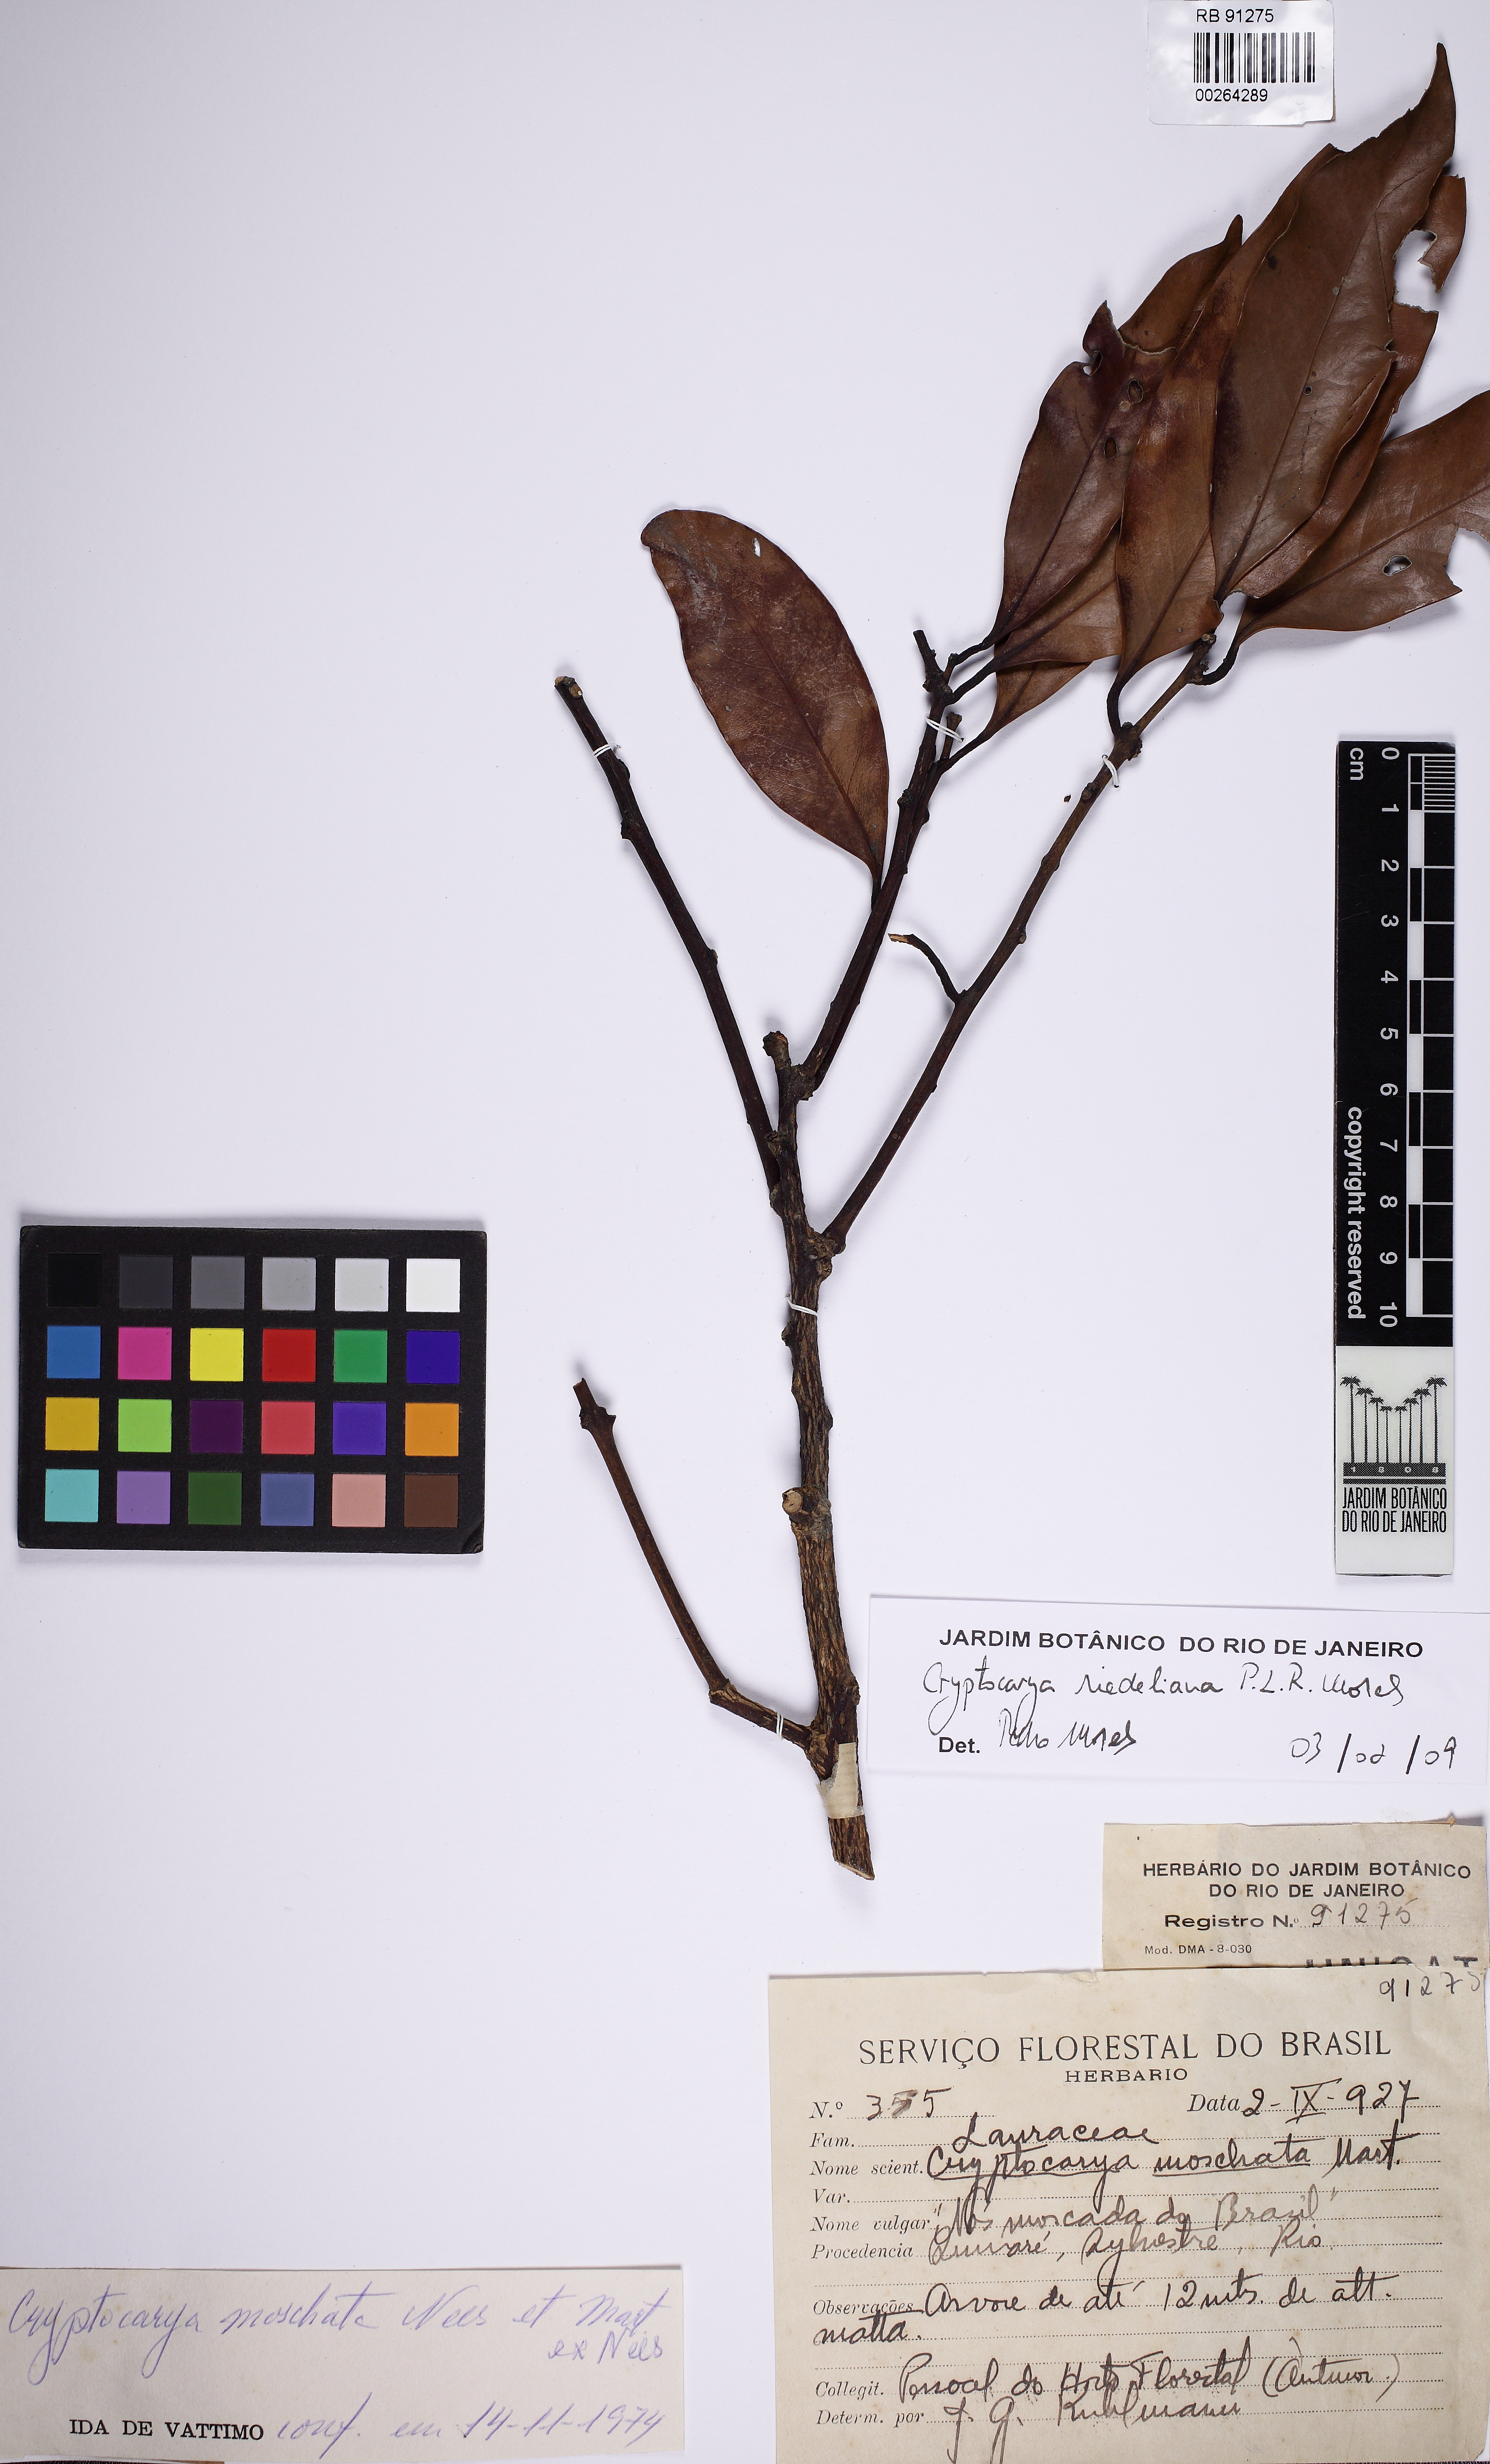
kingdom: Plantae
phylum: Tracheophyta
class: Magnoliopsida
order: Laurales
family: Lauraceae
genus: Cryptocarya
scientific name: Cryptocarya riedeliana
